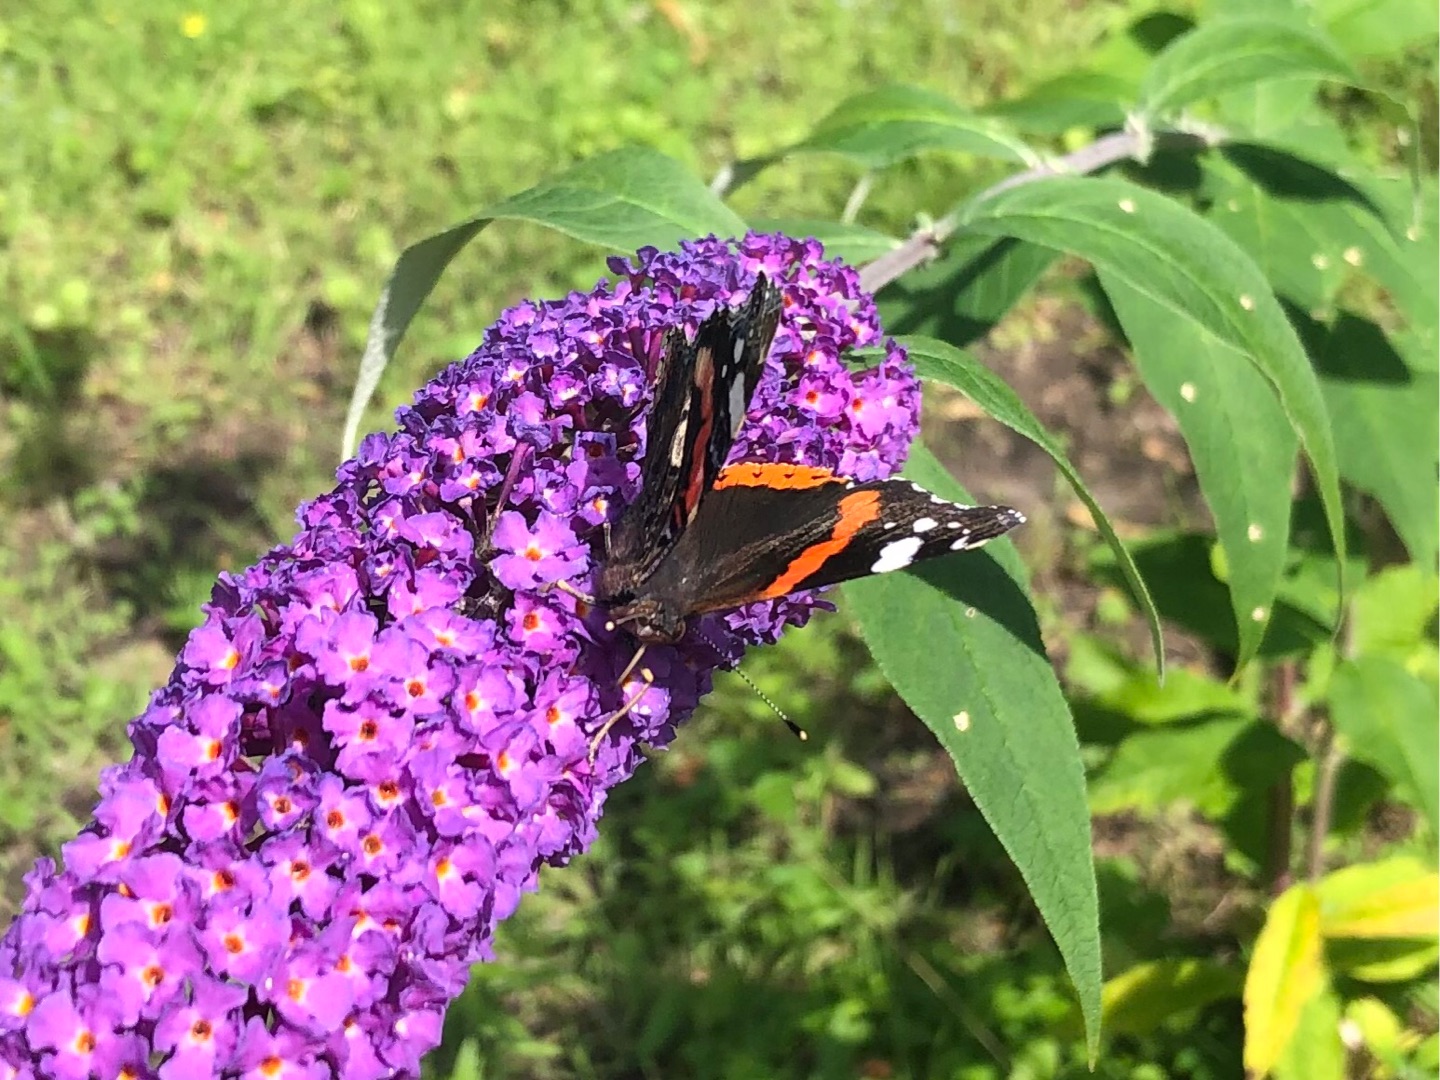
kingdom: Animalia
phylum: Arthropoda
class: Insecta
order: Lepidoptera
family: Nymphalidae
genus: Vanessa
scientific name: Vanessa atalanta
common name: Admiral
